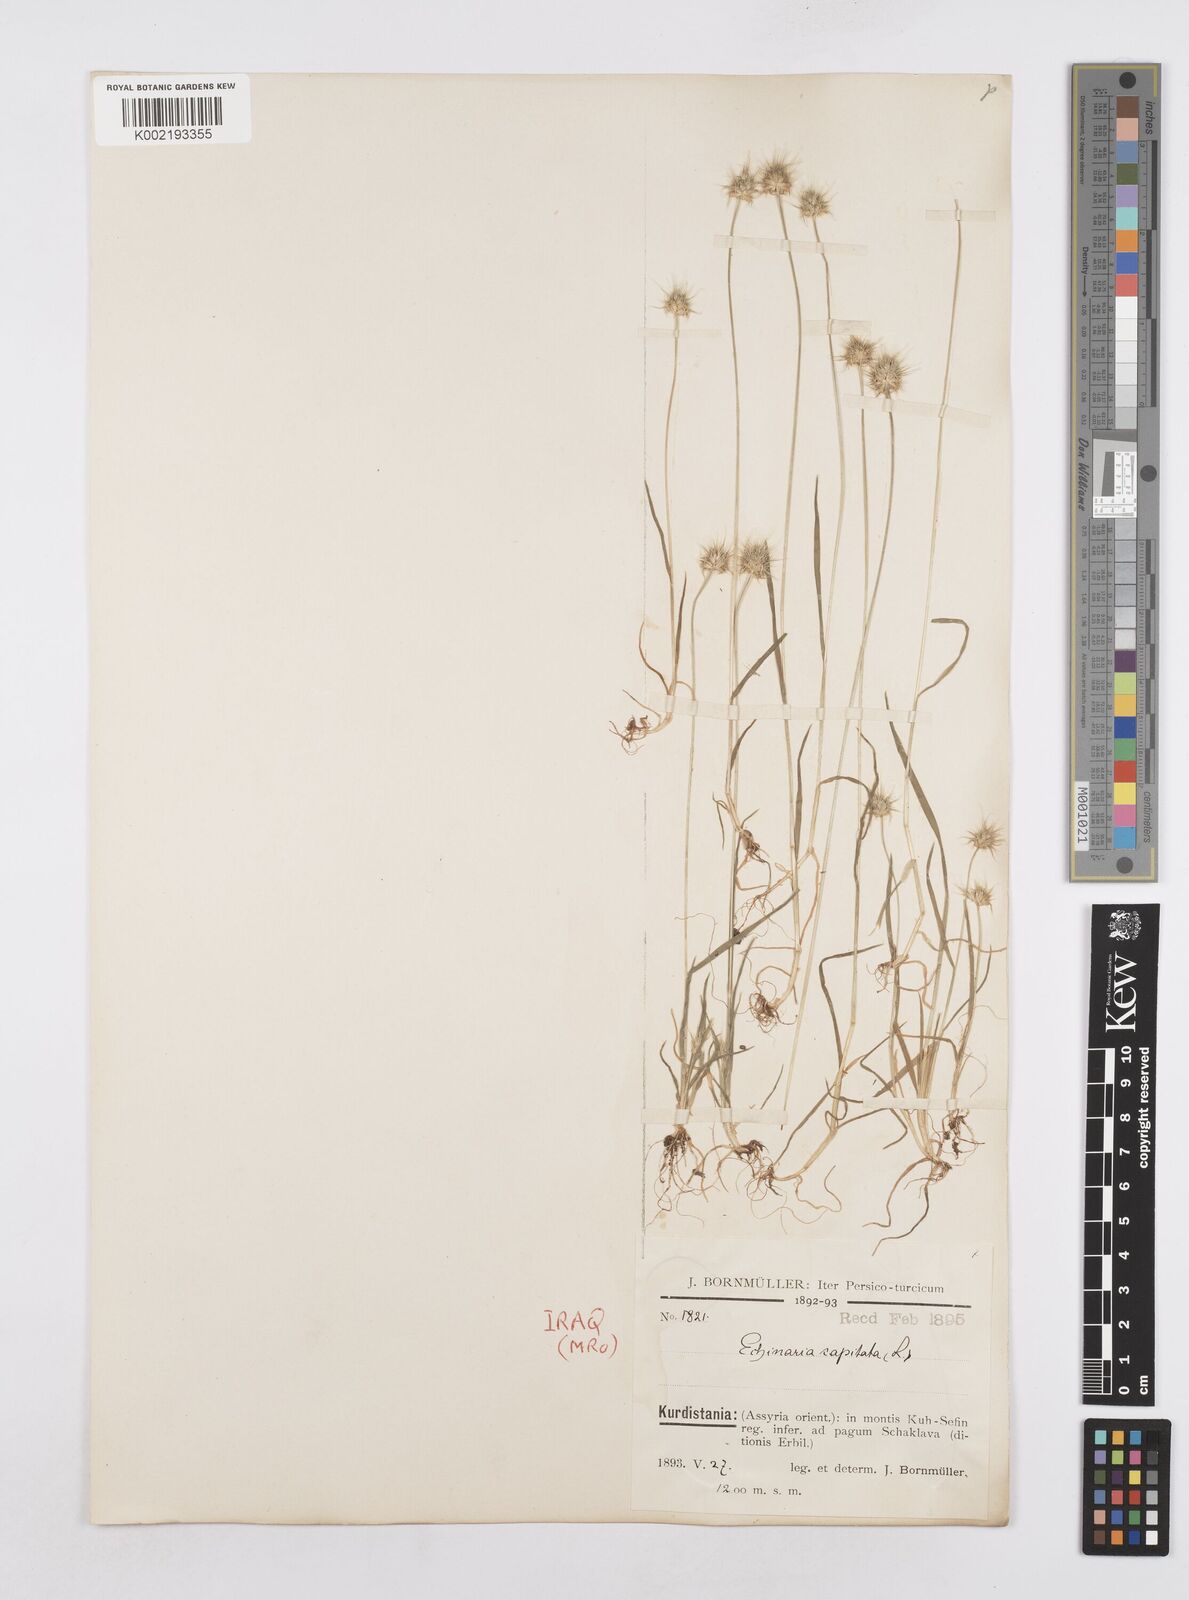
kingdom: Plantae
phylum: Tracheophyta
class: Liliopsida
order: Poales
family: Poaceae
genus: Echinaria
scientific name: Echinaria capitata
